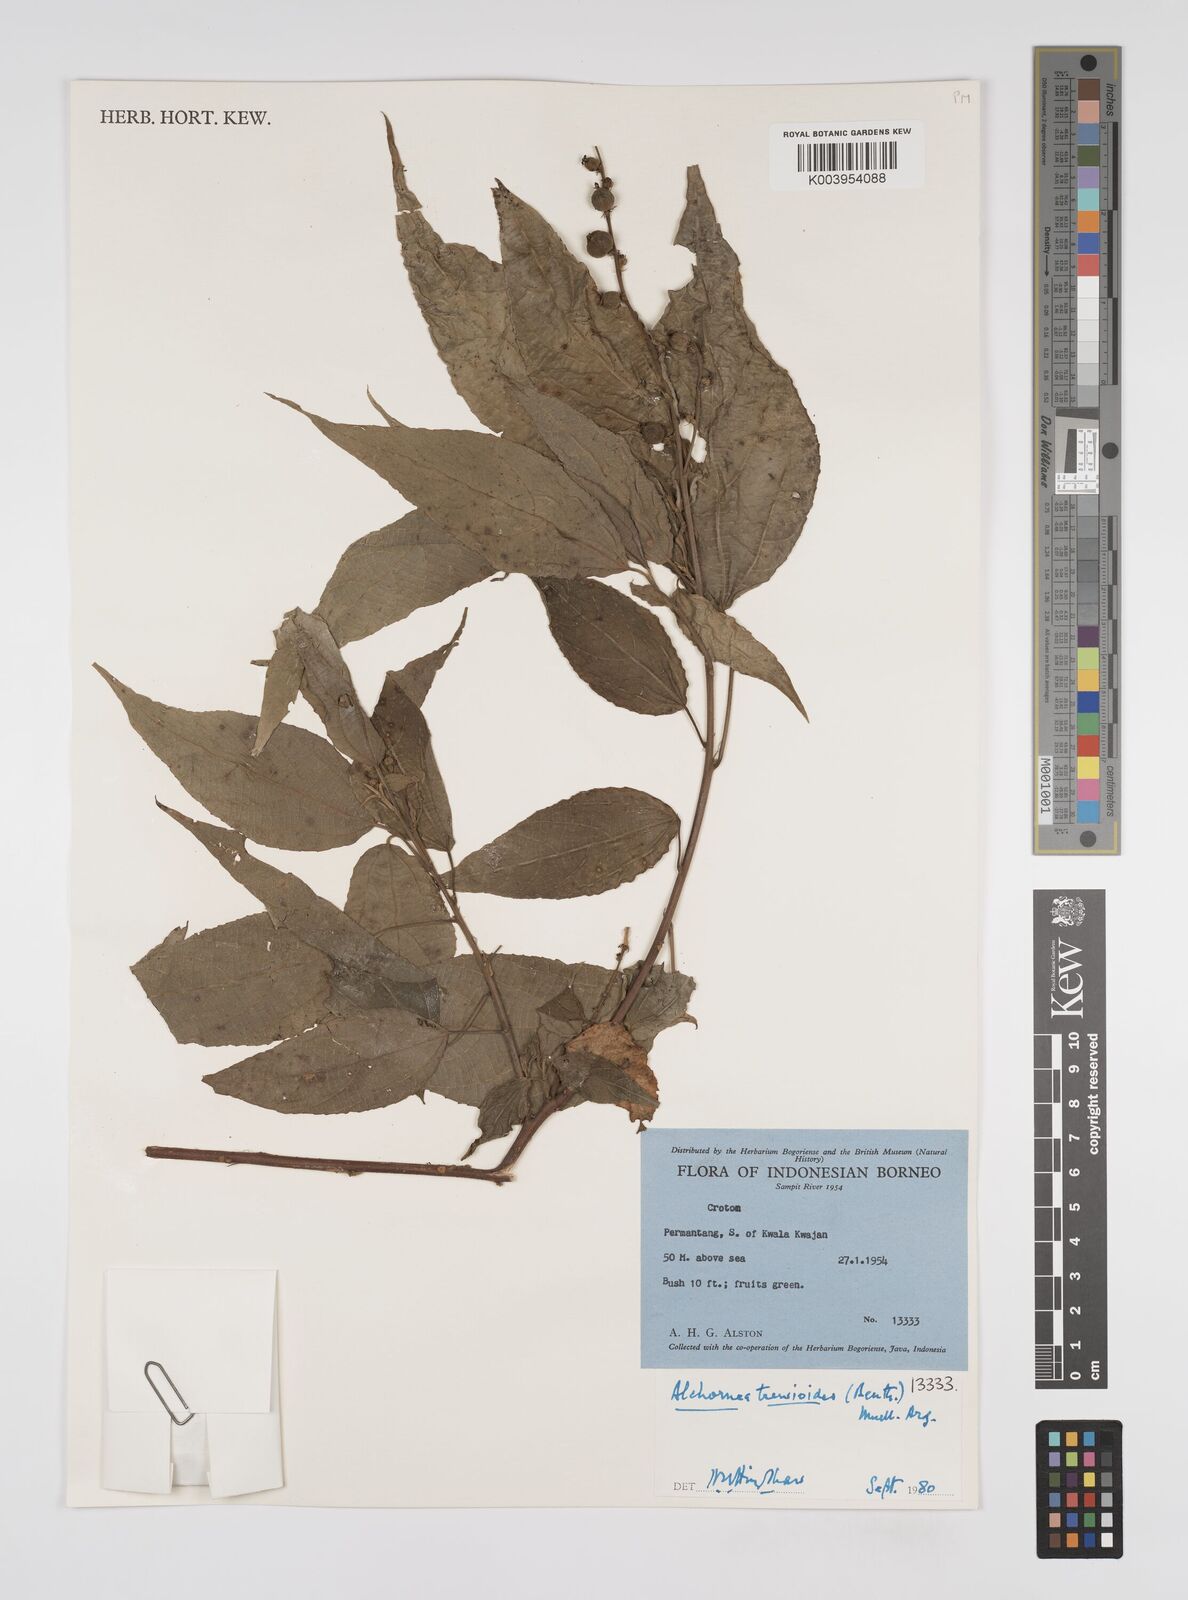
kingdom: Plantae
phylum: Tracheophyta
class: Magnoliopsida
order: Malpighiales
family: Euphorbiaceae
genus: Alchornea
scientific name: Alchornea trewioides
